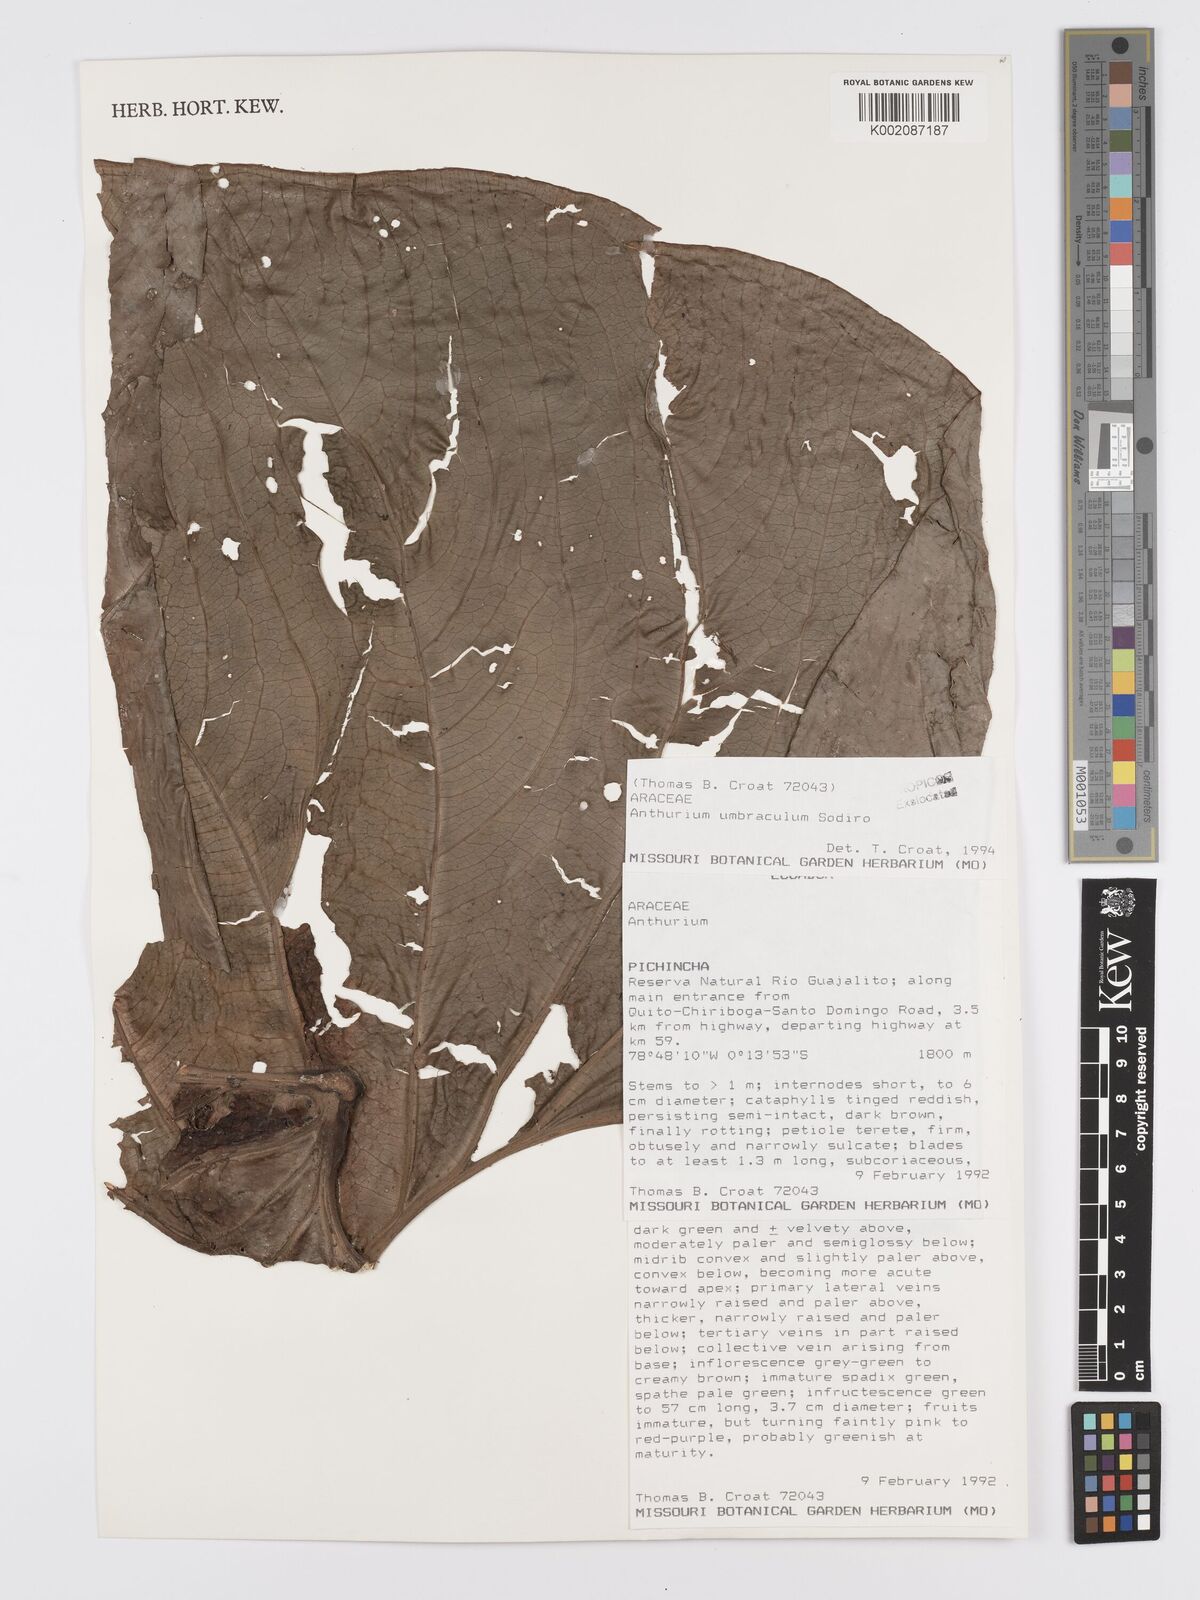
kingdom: Plantae
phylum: Tracheophyta
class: Liliopsida
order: Alismatales
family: Araceae
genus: Anthurium
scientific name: Anthurium umbraculum
